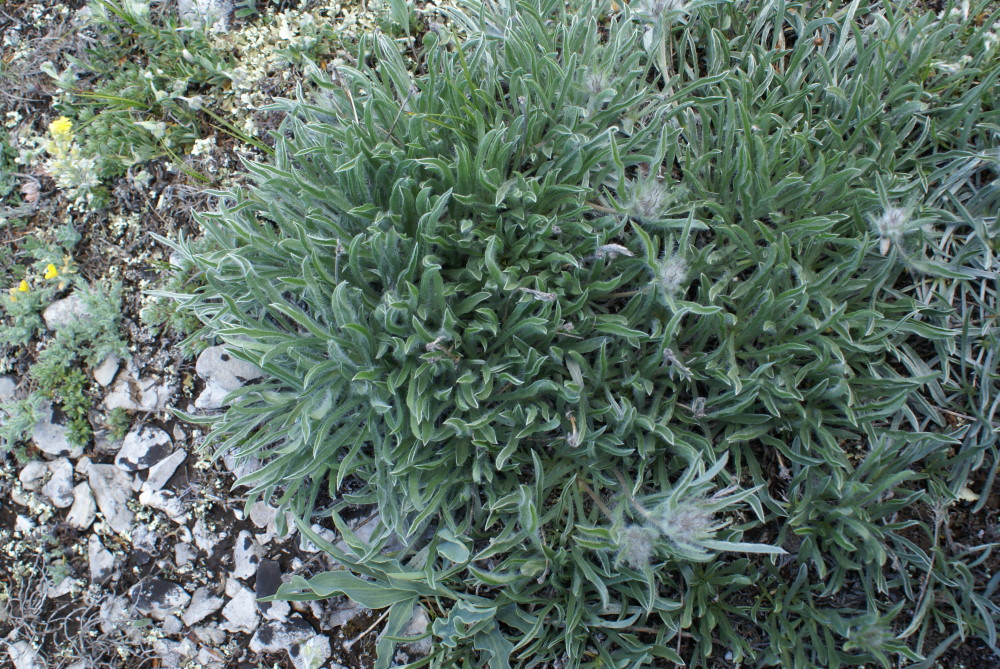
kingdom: Plantae
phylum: Tracheophyta
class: Magnoliopsida
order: Solanales
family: Convolvulaceae
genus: Convolvulus
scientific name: Convolvulus calvertii
